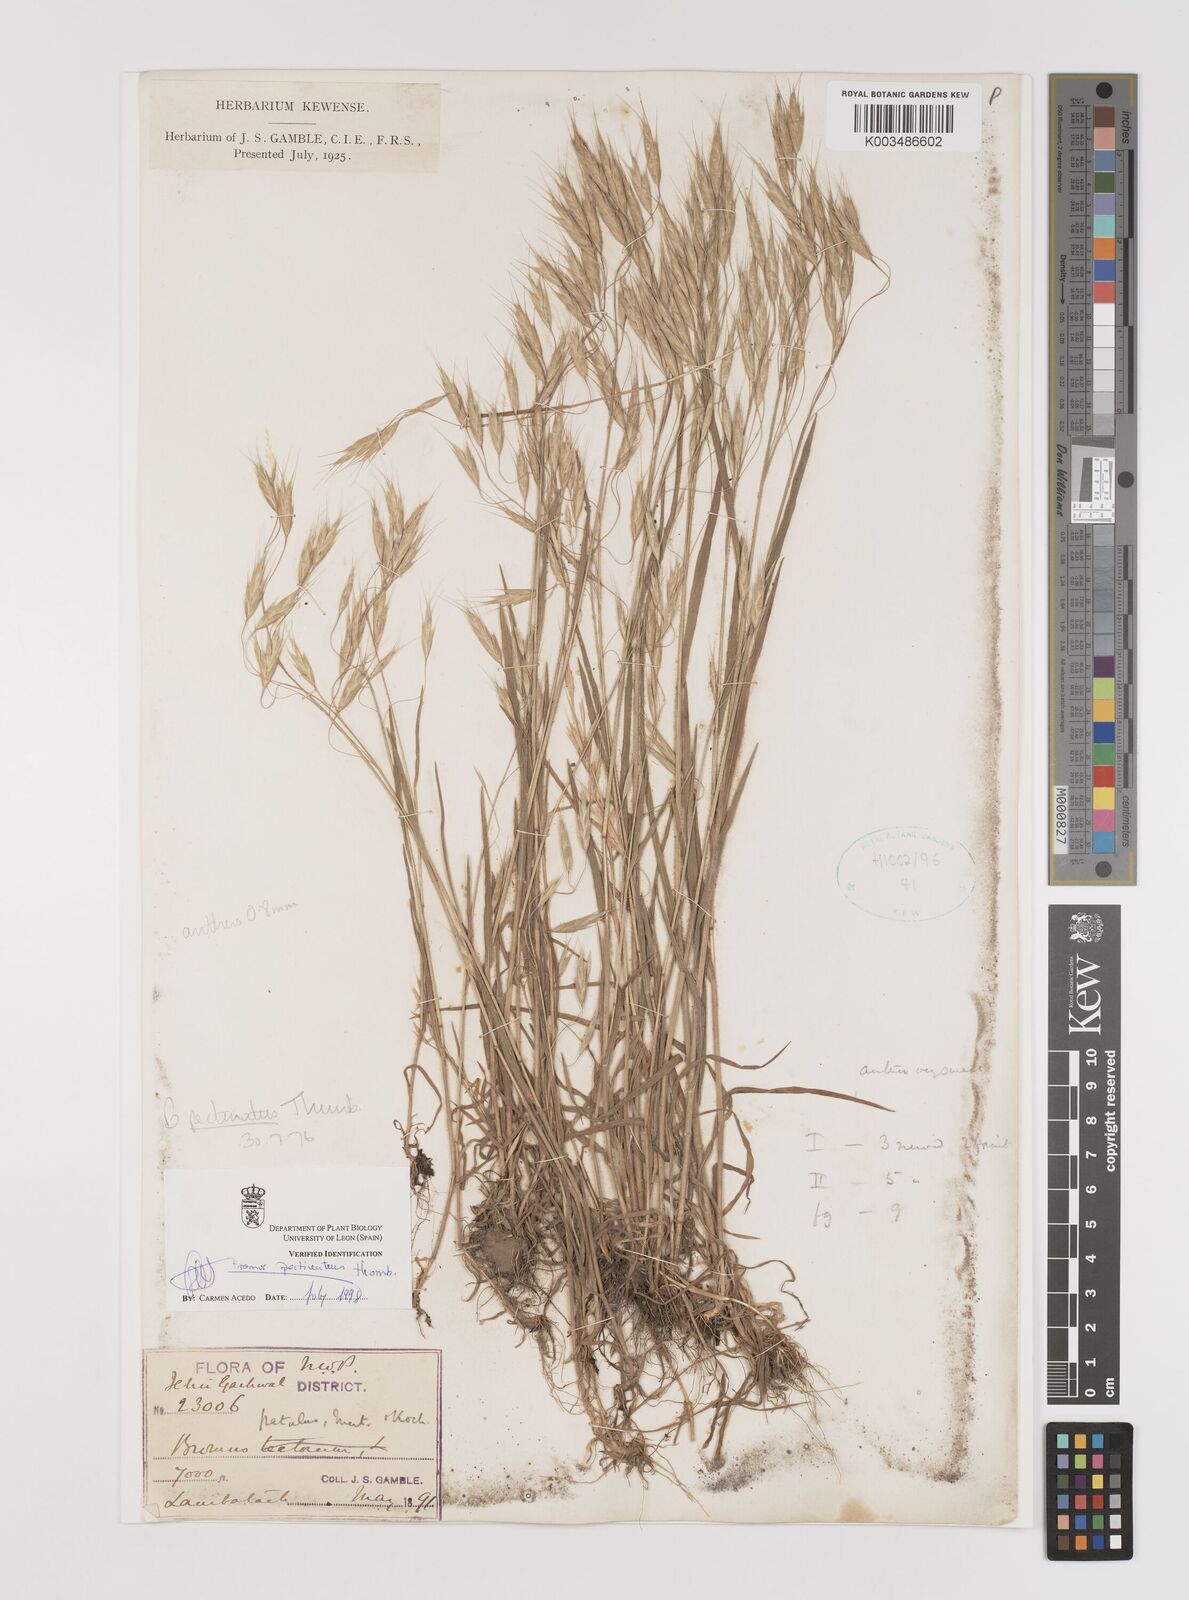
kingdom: Plantae
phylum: Tracheophyta
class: Liliopsida
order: Poales
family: Poaceae
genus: Bromus
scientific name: Bromus pectinatus
